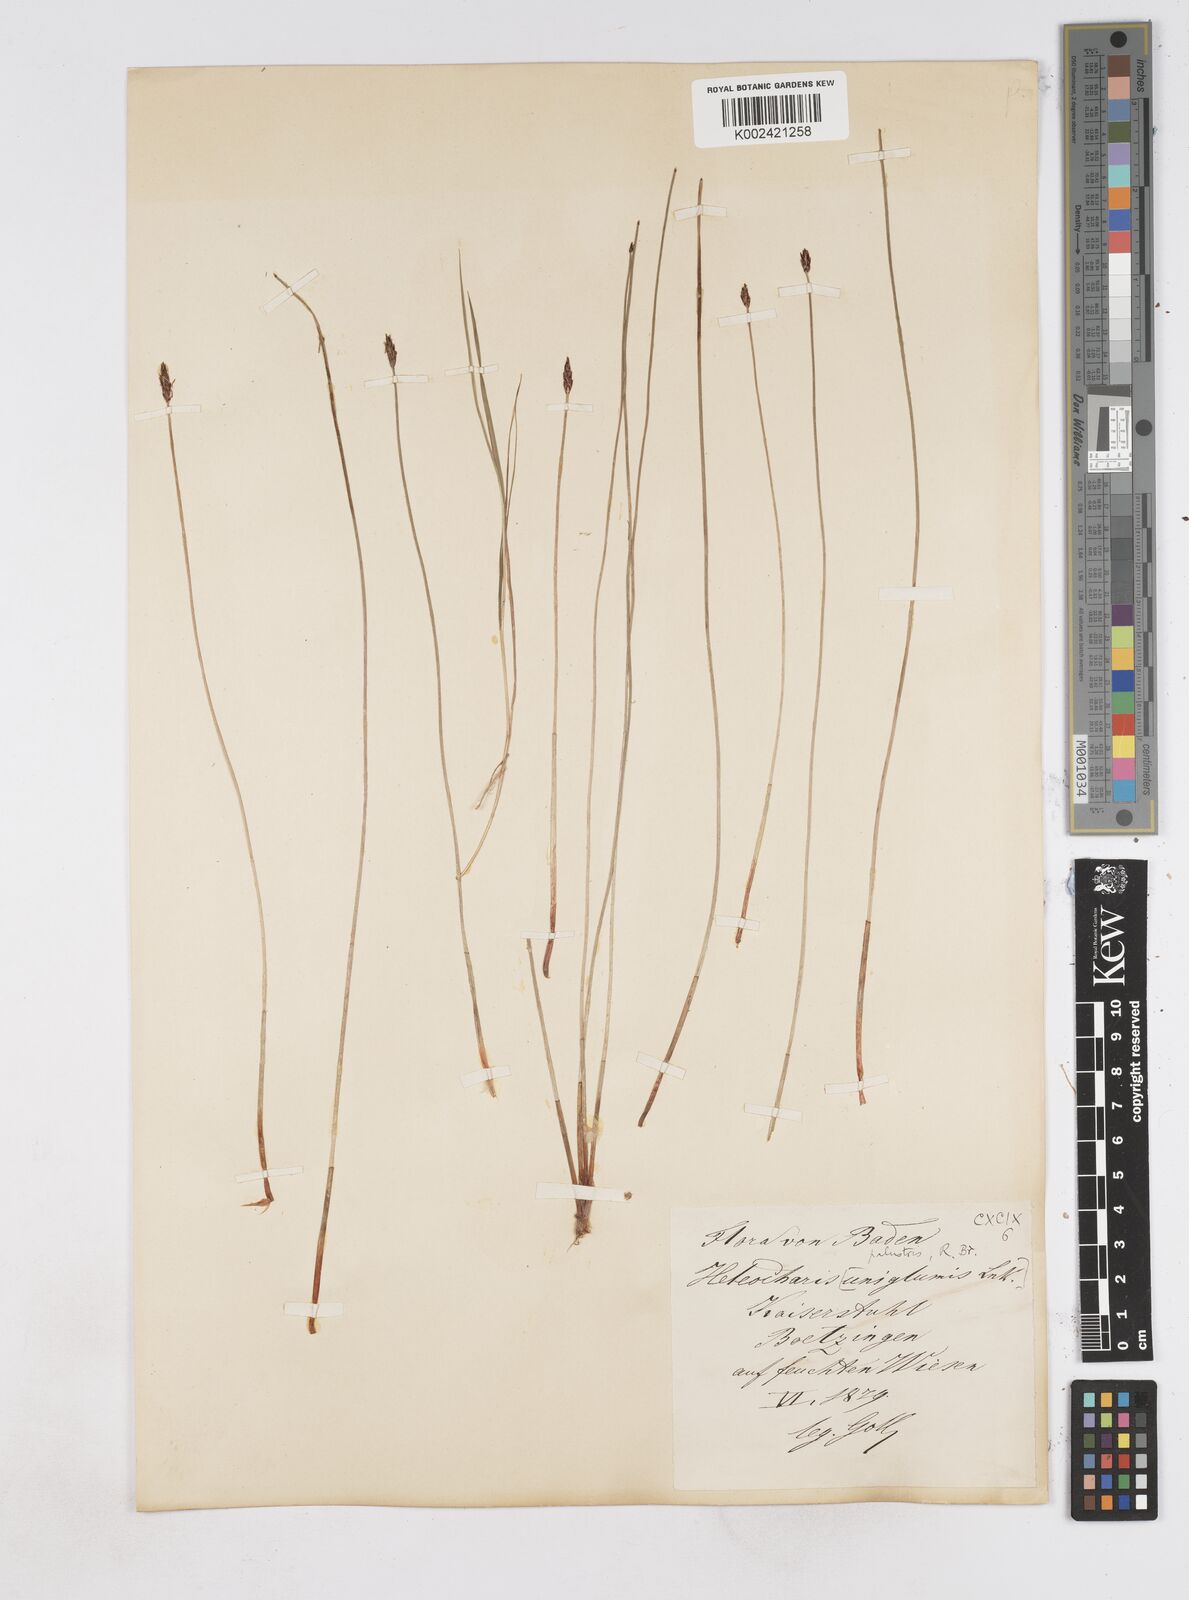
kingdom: Plantae
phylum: Tracheophyta
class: Liliopsida
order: Poales
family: Cyperaceae
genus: Eleocharis
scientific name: Eleocharis palustris
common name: Common spike-rush
